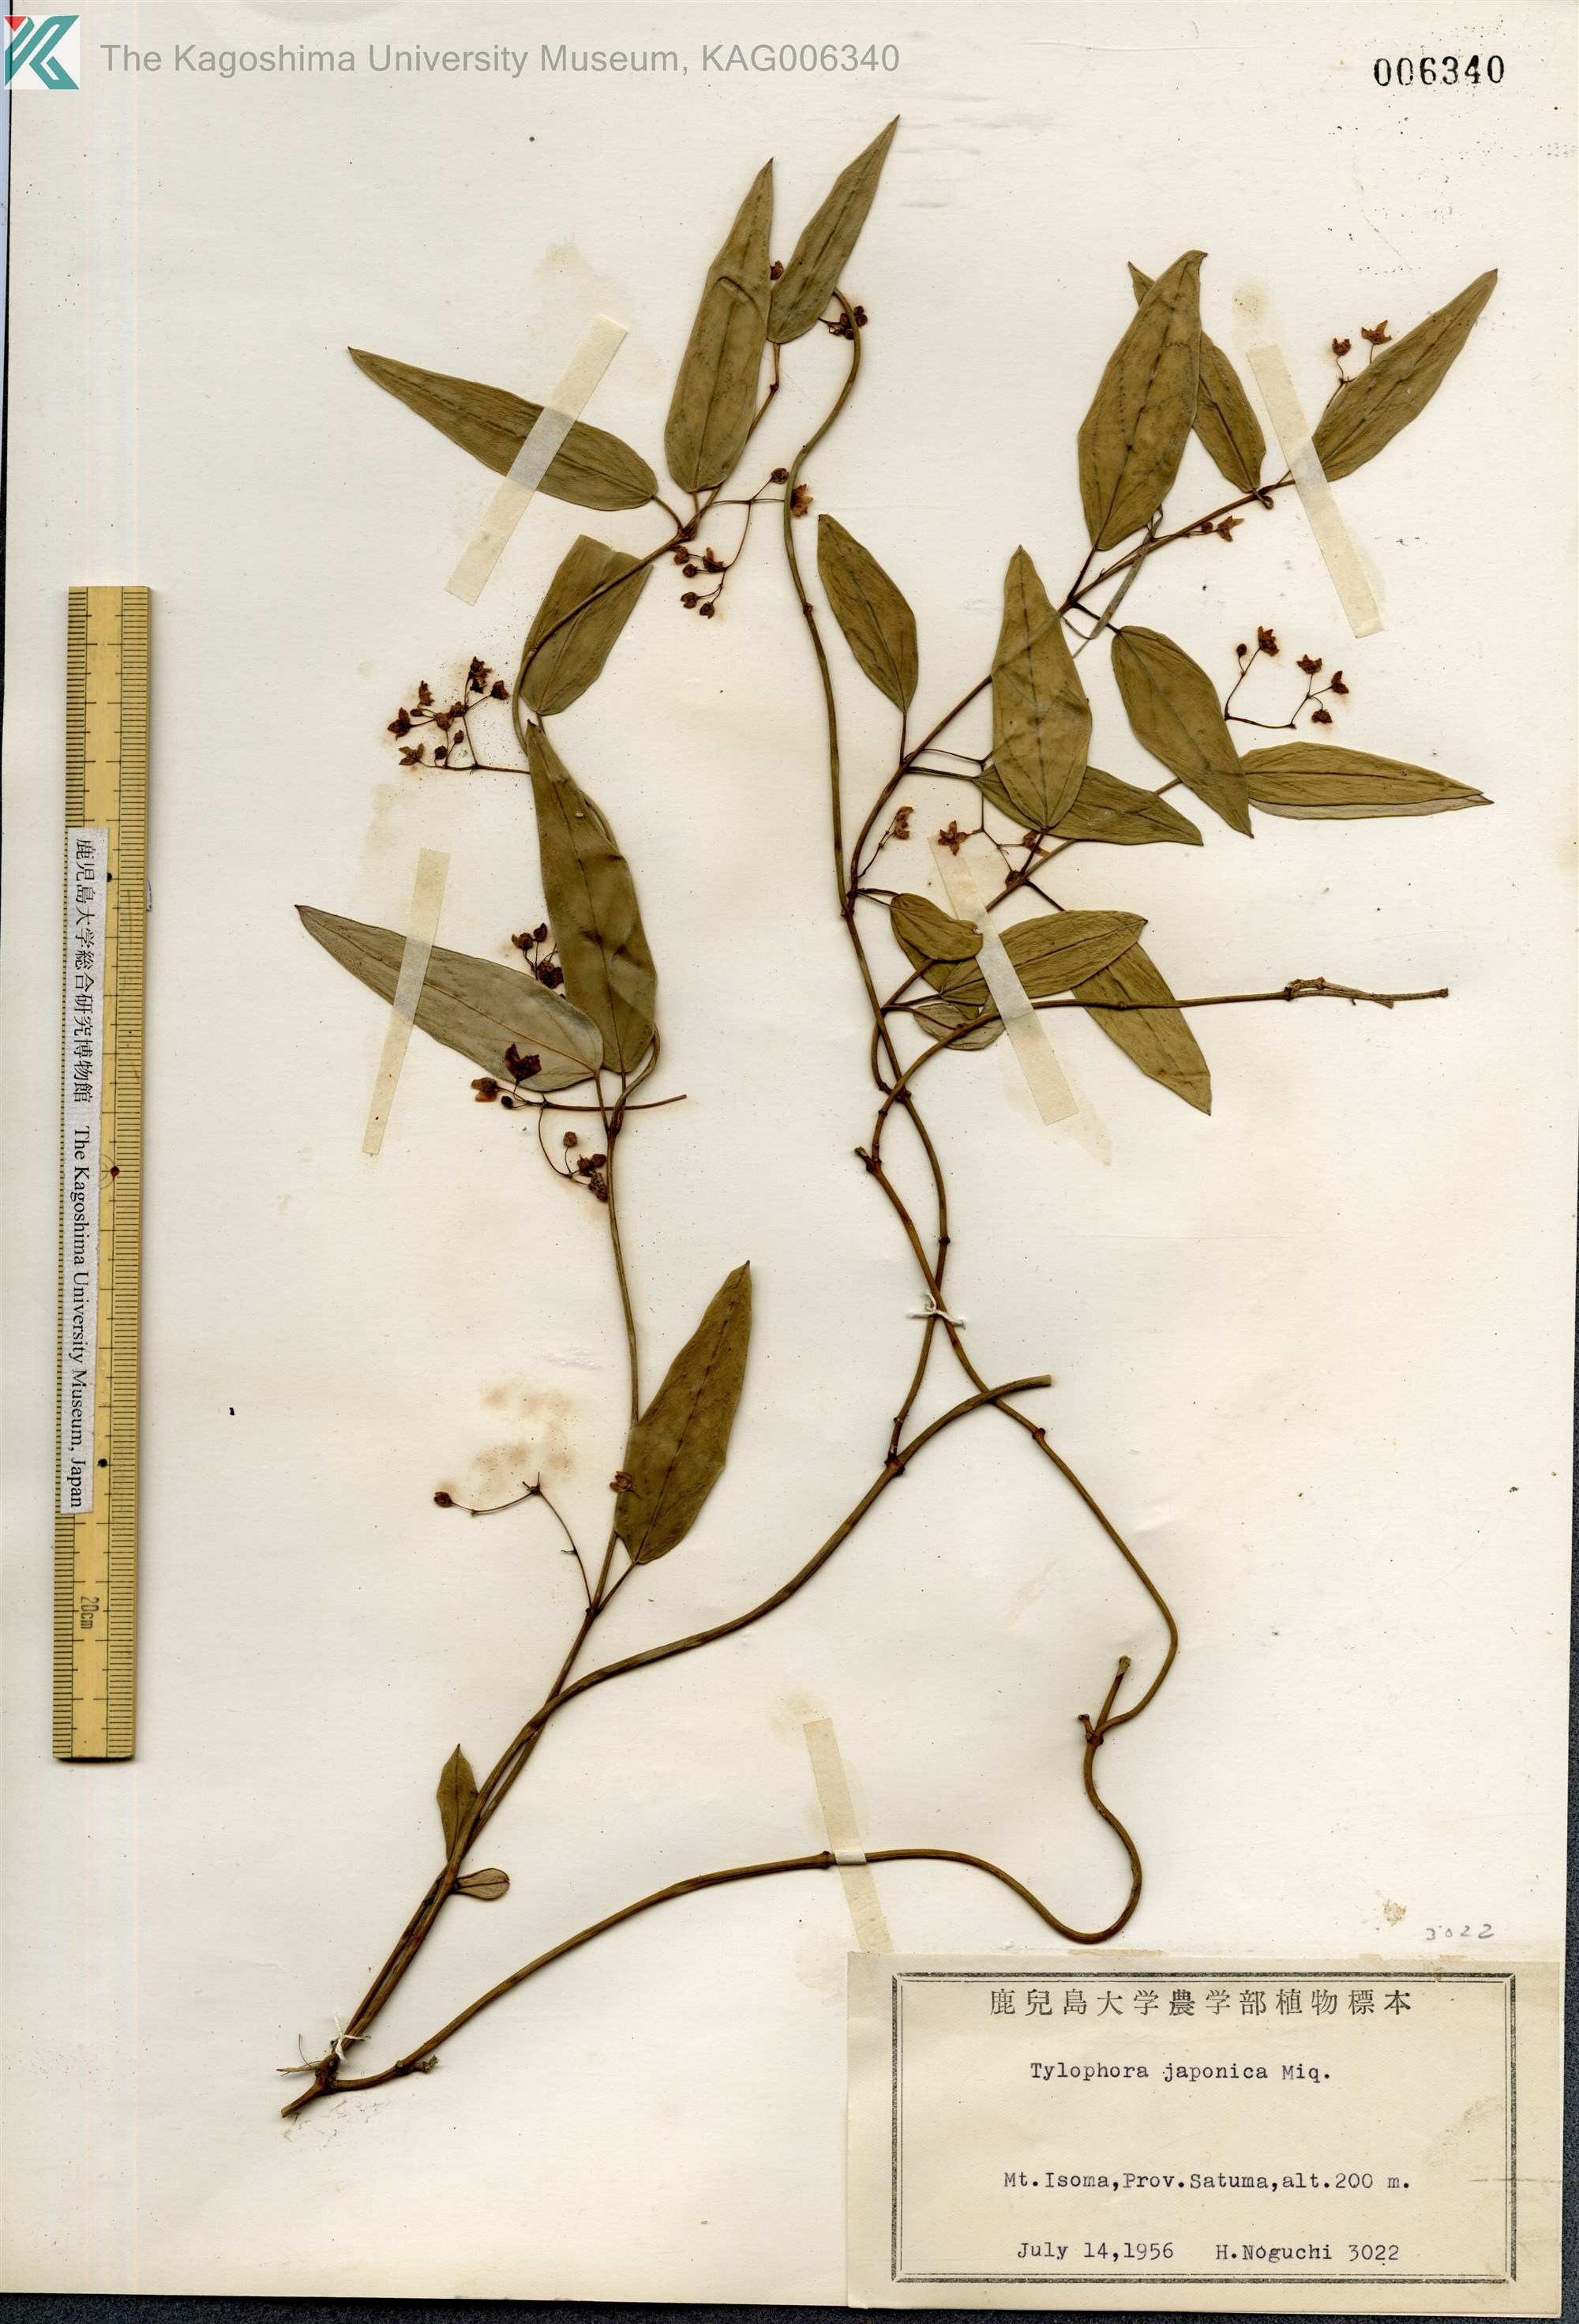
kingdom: Plantae
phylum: Tracheophyta
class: Magnoliopsida
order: Gentianales
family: Apocynaceae
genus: Vincetoxicum
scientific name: Vincetoxicum sieboldii
